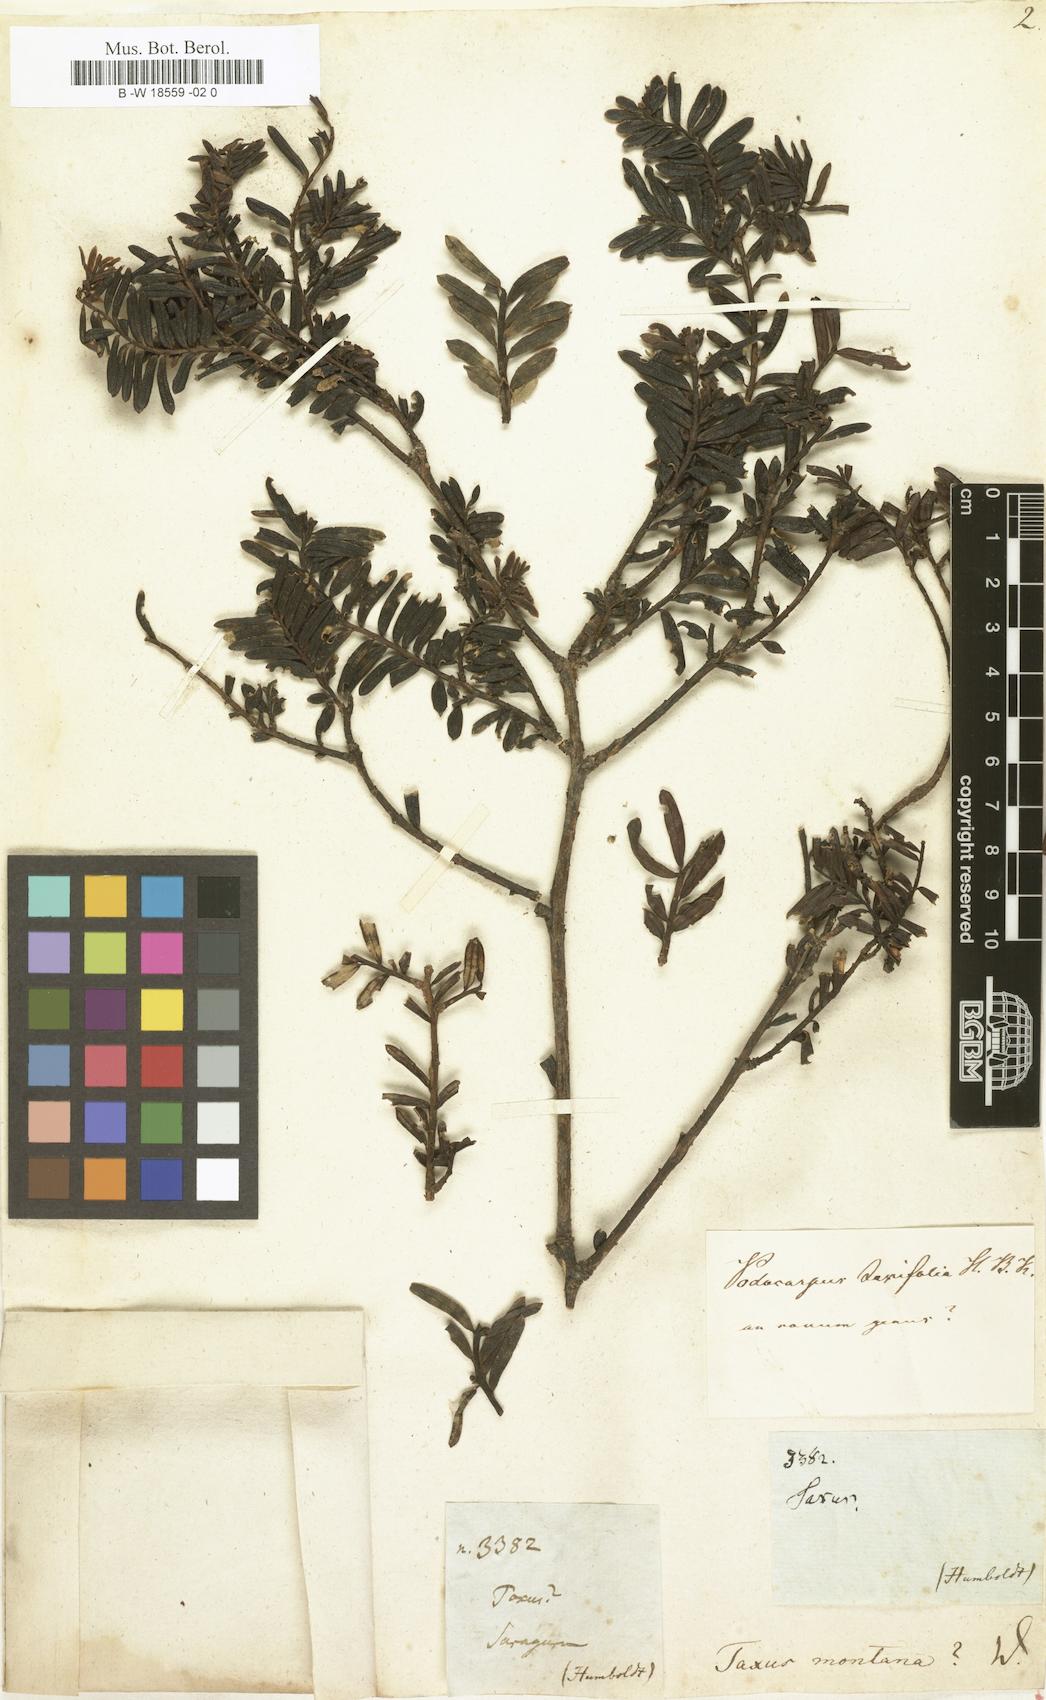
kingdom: Plantae
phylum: Tracheophyta
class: Pinopsida
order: Pinales
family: Taxaceae
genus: Torreya
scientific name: Torreya taxifolia
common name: Florida torreya
